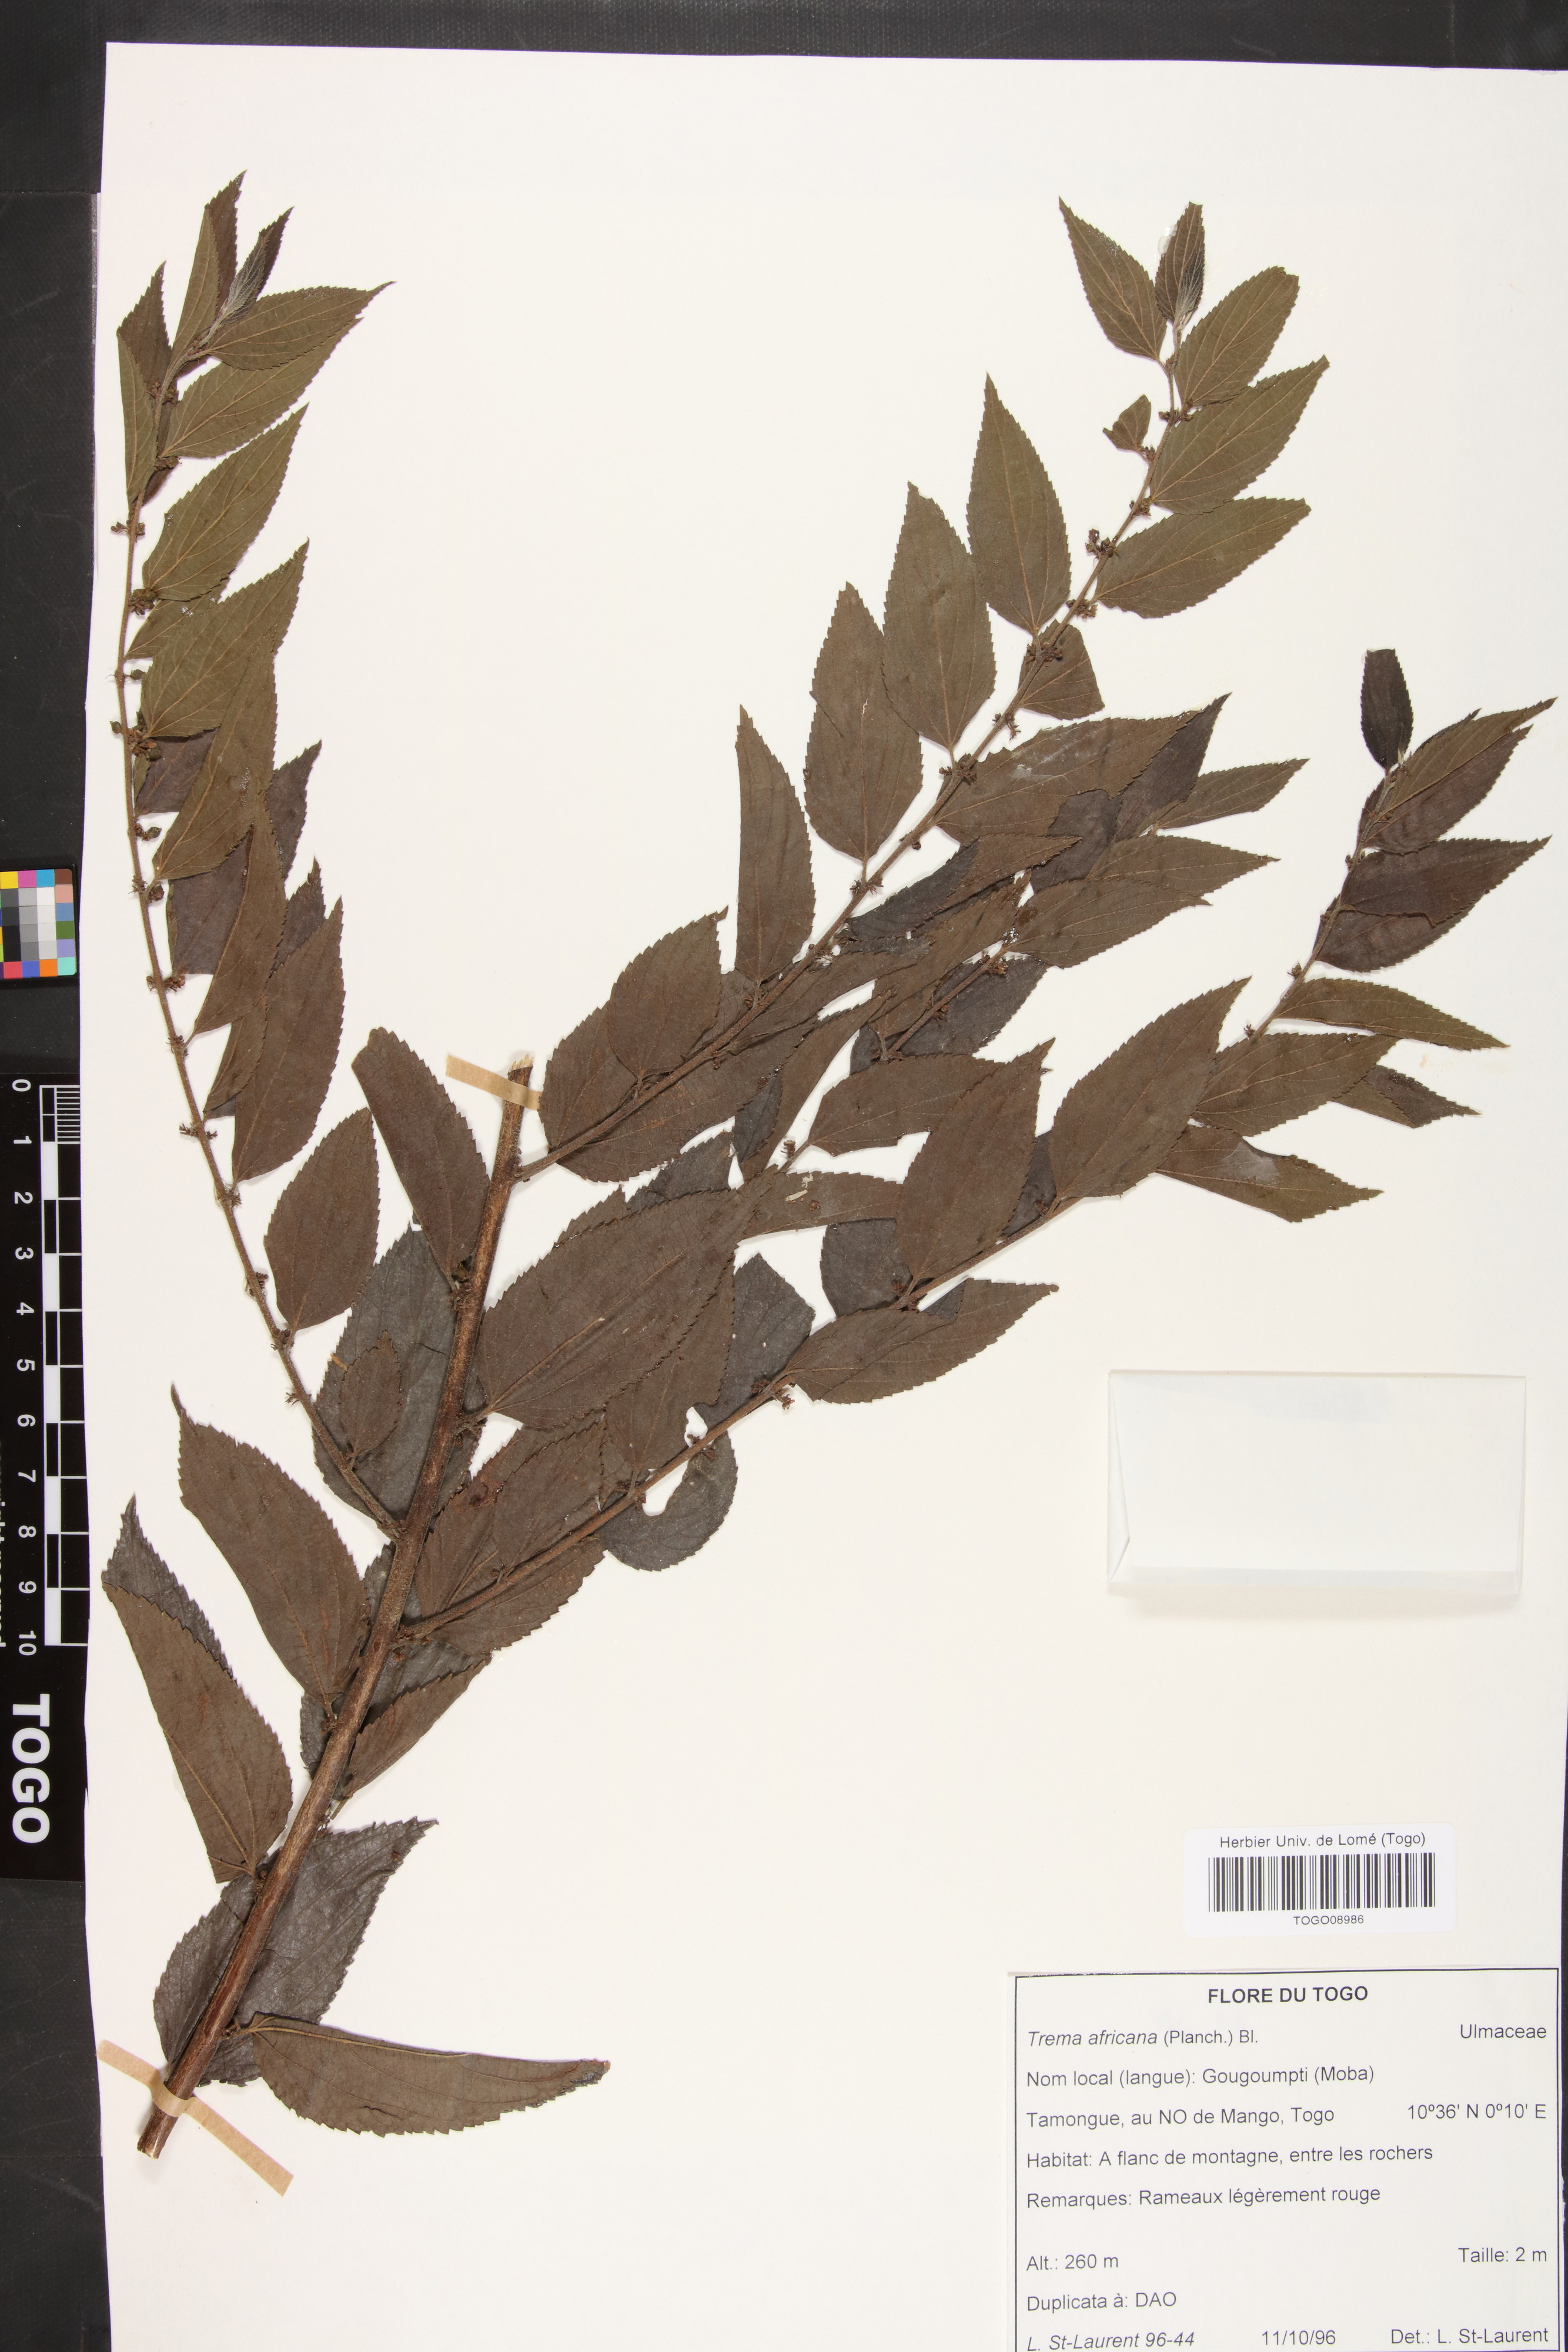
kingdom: Plantae
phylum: Tracheophyta
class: Magnoliopsida
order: Rosales
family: Cannabaceae
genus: Trema
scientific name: Trema orientale
